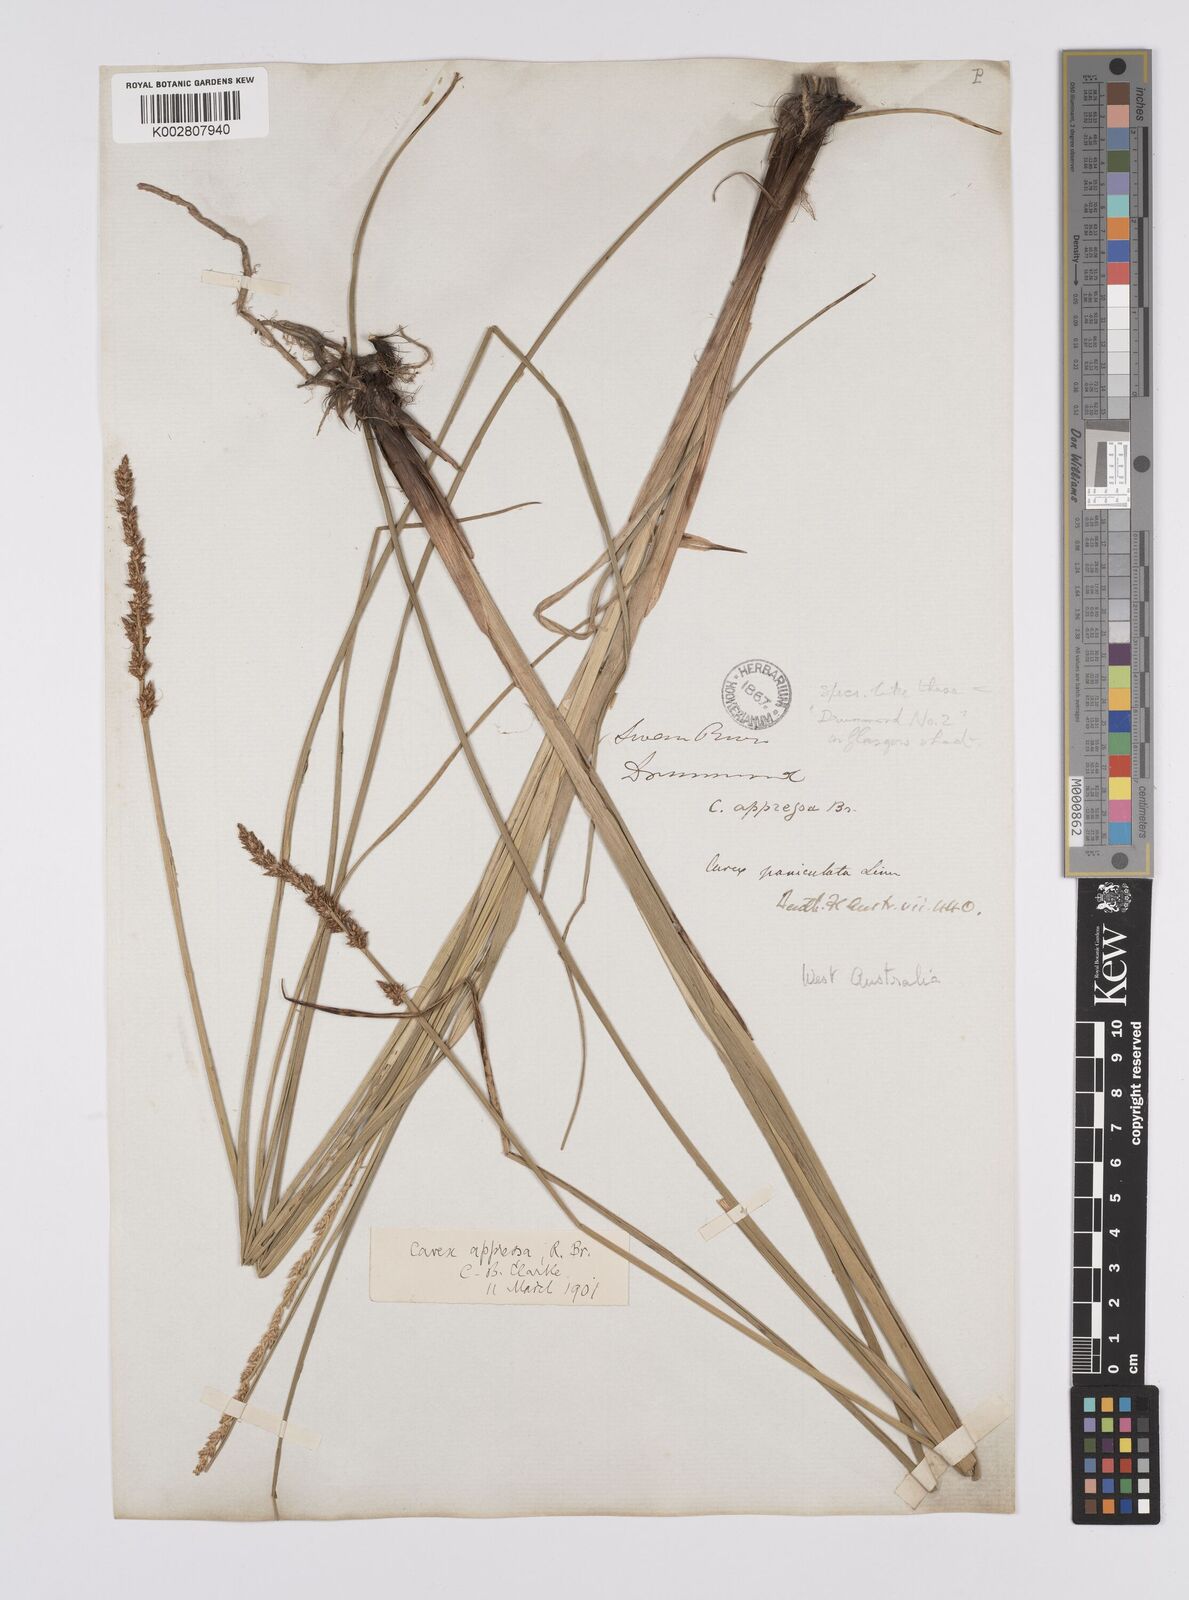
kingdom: Plantae
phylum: Tracheophyta
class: Liliopsida
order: Poales
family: Cyperaceae
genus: Carex
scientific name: Carex tereticaulis
